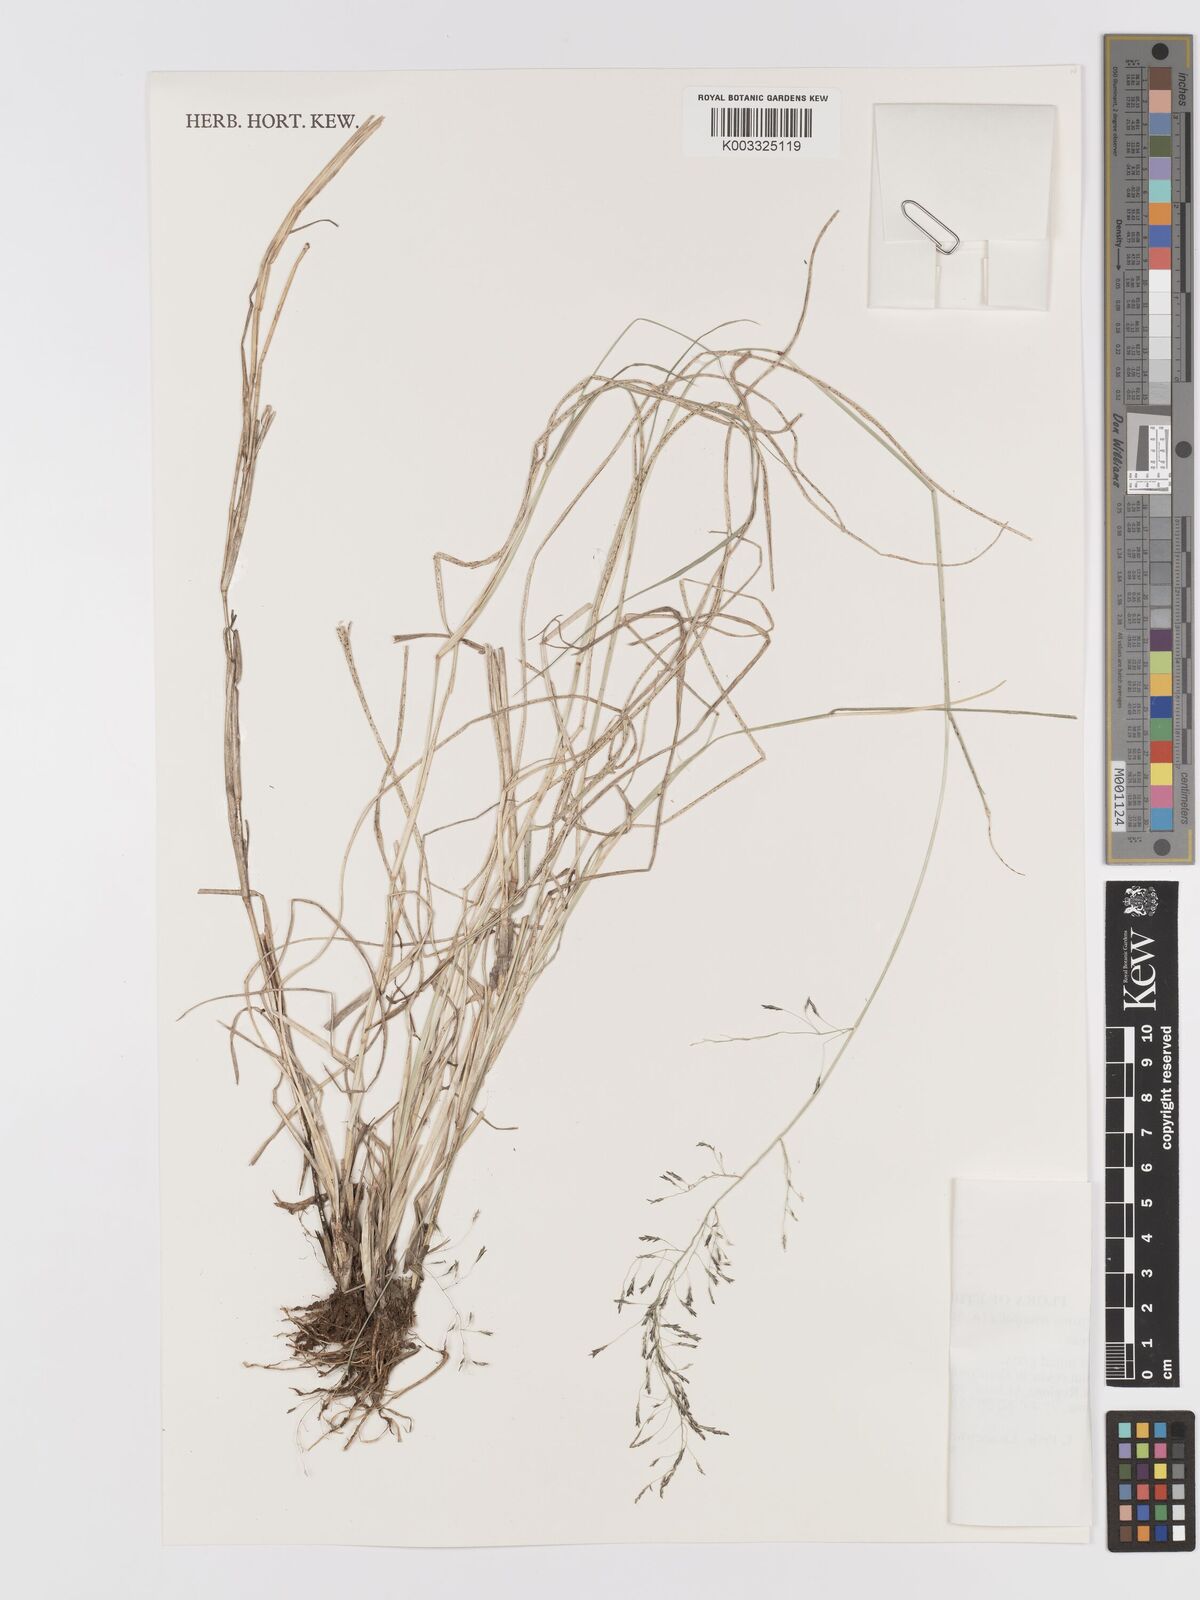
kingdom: Plantae
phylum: Tracheophyta
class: Liliopsida
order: Poales
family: Poaceae
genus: Eragrostis
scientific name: Eragrostis tenuifolia
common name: Elastic grass
